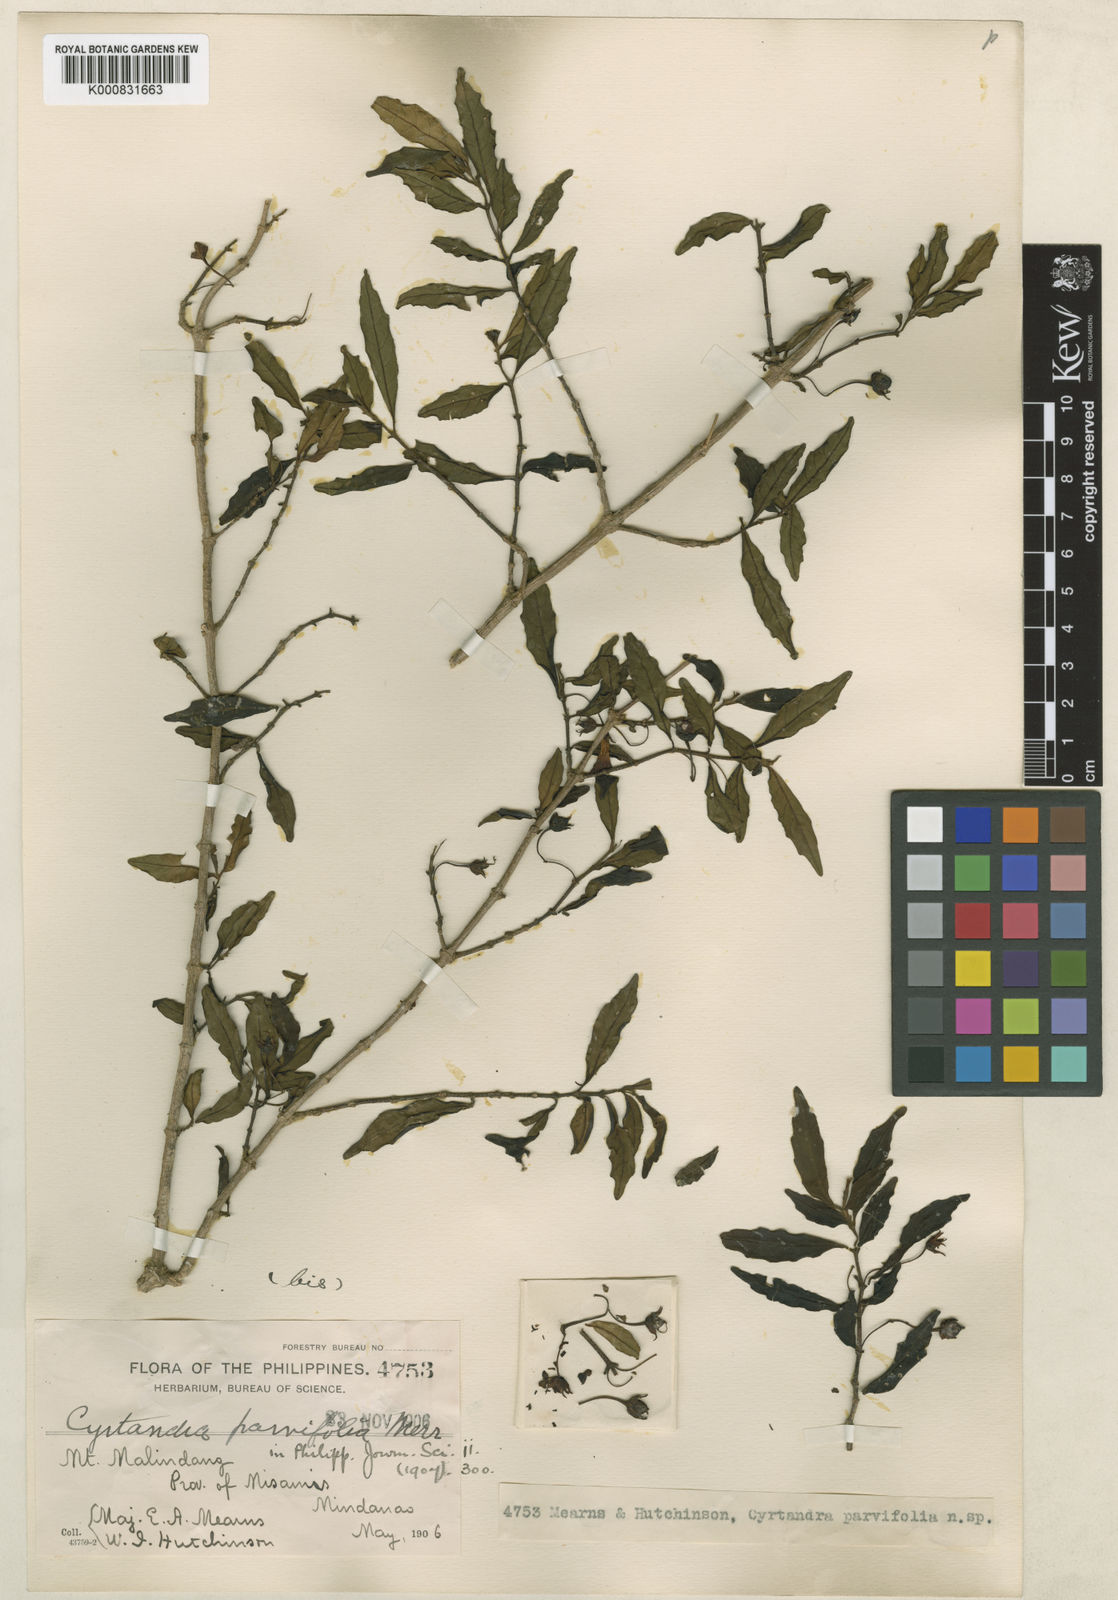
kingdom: Plantae
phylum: Tracheophyta
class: Magnoliopsida
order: Lamiales
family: Gesneriaceae
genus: Cyrtandra
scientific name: Cyrtandra parvifolia
